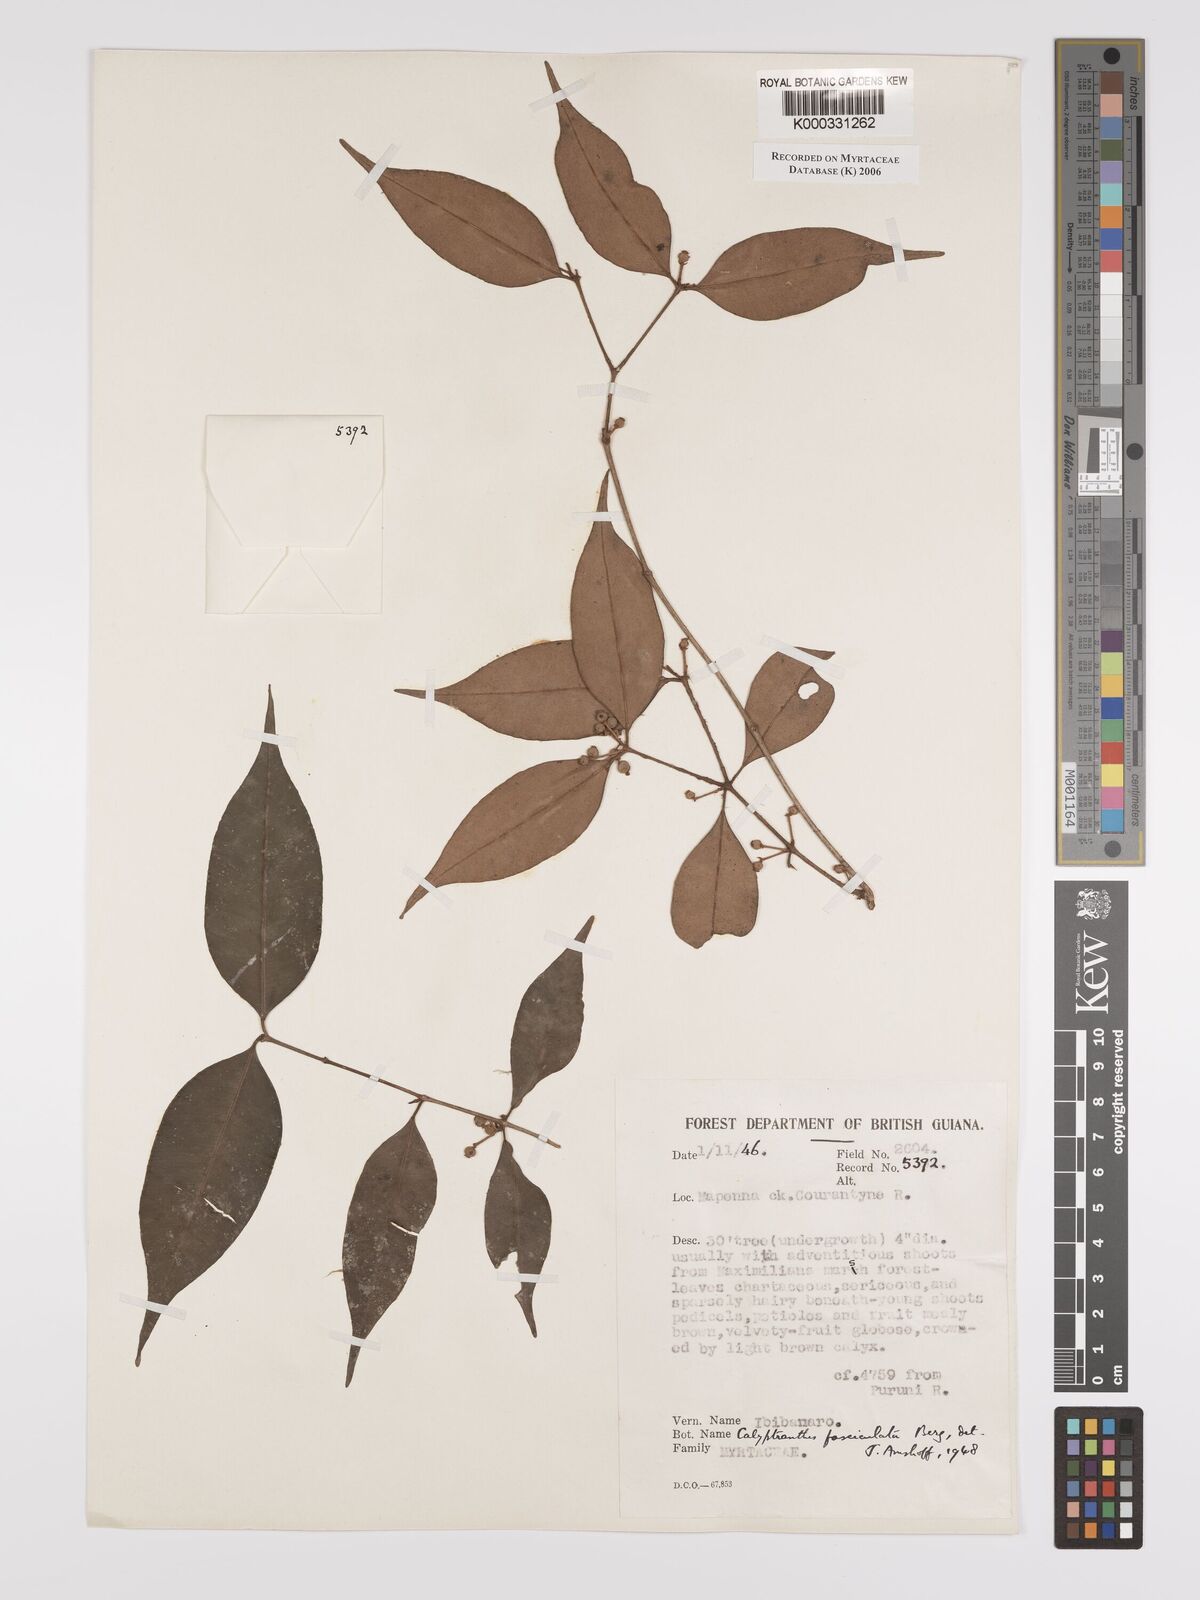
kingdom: Plantae
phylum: Tracheophyta
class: Magnoliopsida
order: Myrtales
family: Myrtaceae
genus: Myrcia
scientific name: Myrcia fasciculata
